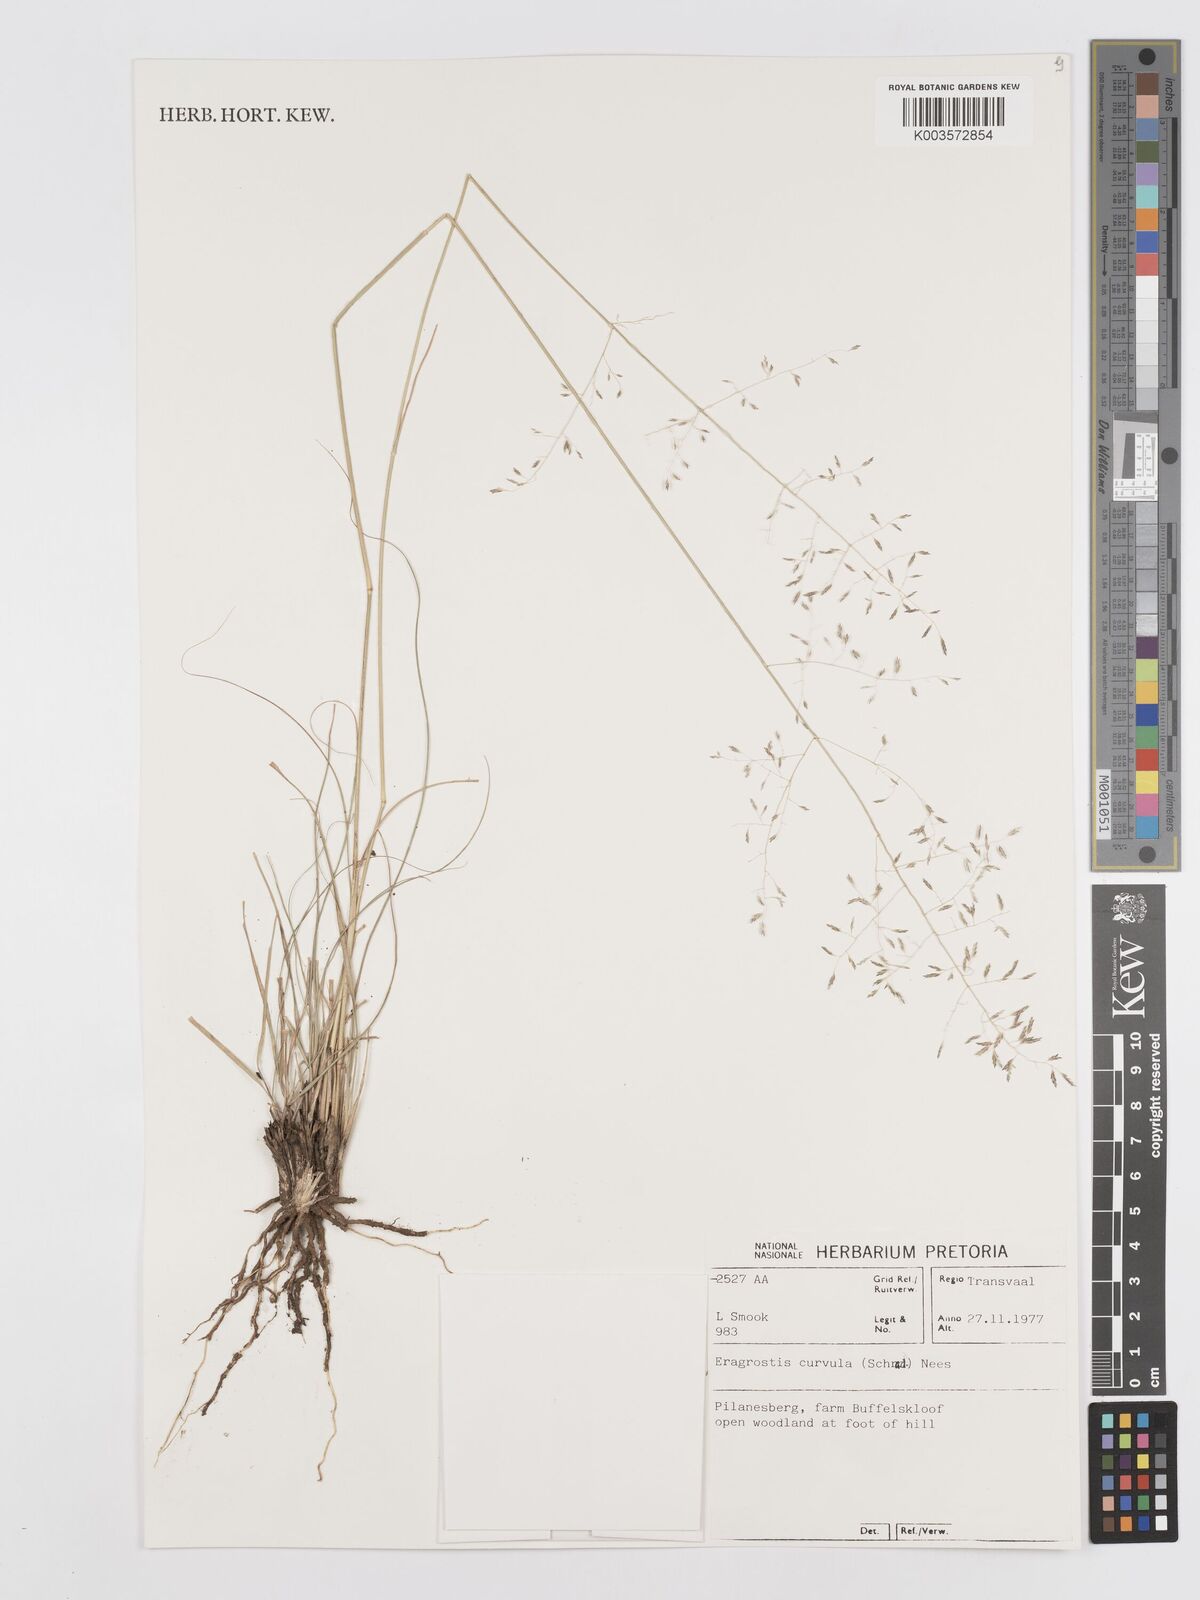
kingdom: Plantae
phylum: Tracheophyta
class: Liliopsida
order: Poales
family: Poaceae
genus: Eragrostis
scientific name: Eragrostis curvula
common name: African love-grass
